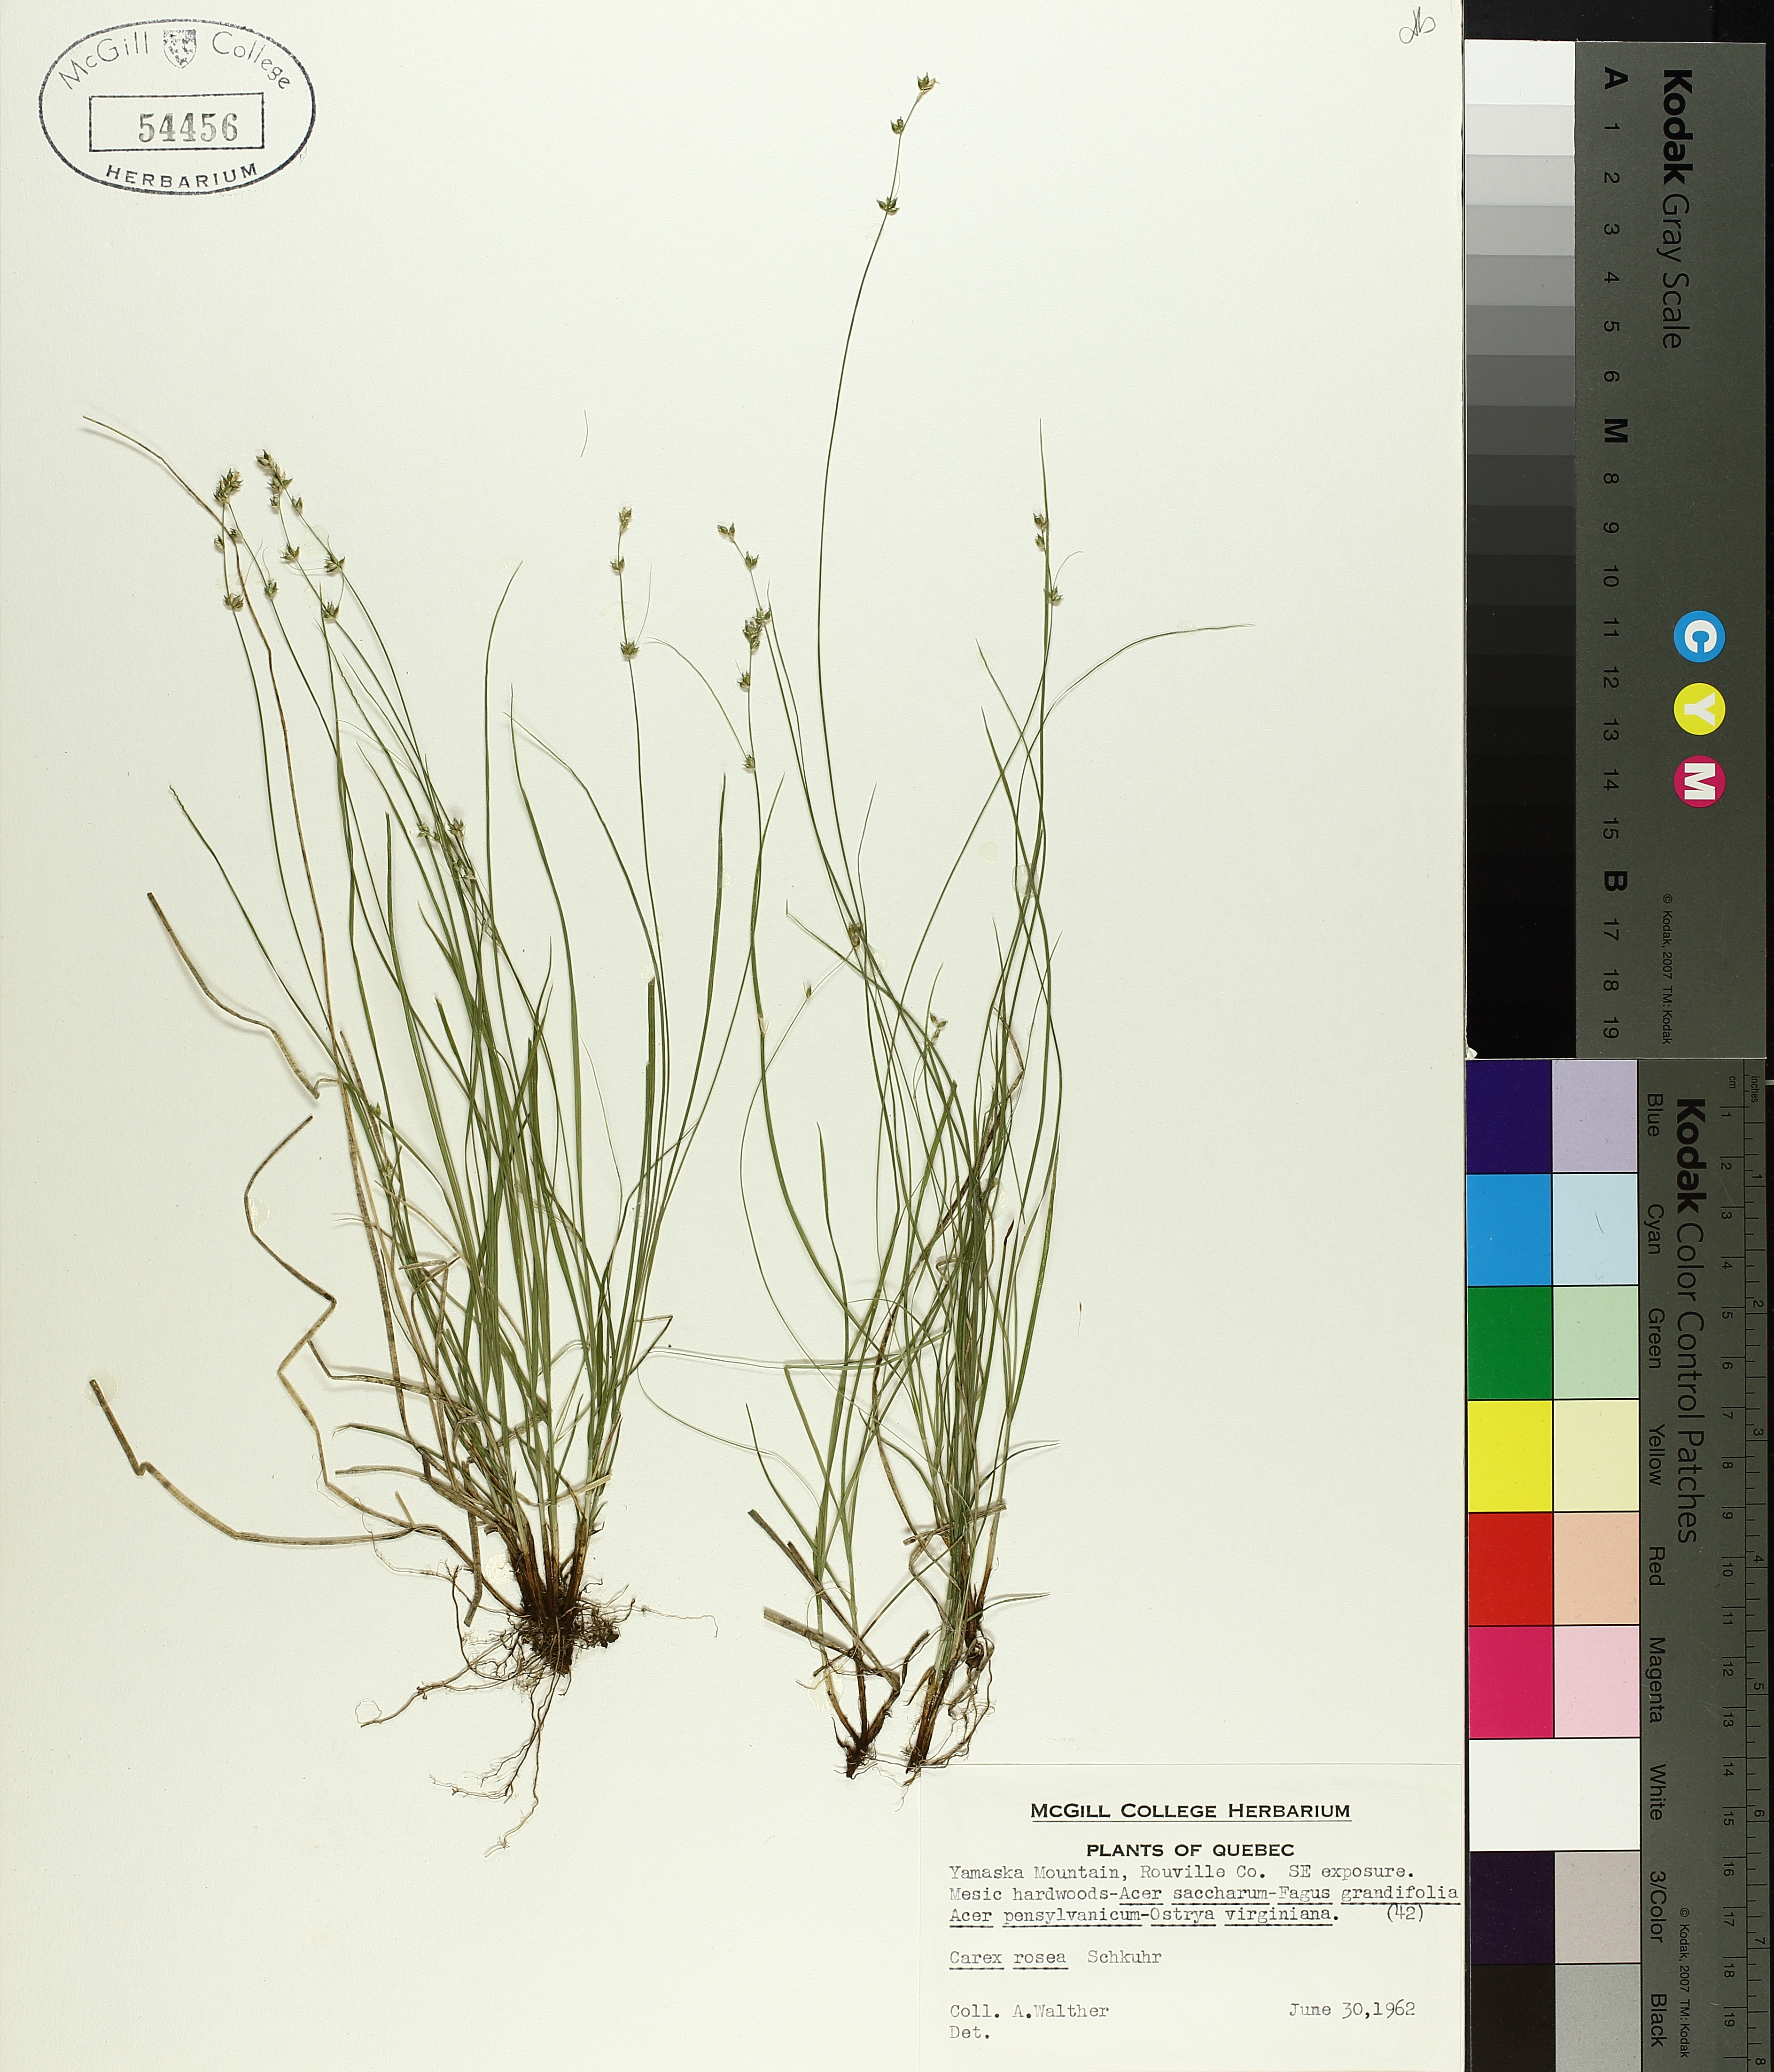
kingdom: Plantae
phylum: Tracheophyta
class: Liliopsida
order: Poales
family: Cyperaceae
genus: Carex
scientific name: Carex rosea
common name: Curly-styled wood sedge
